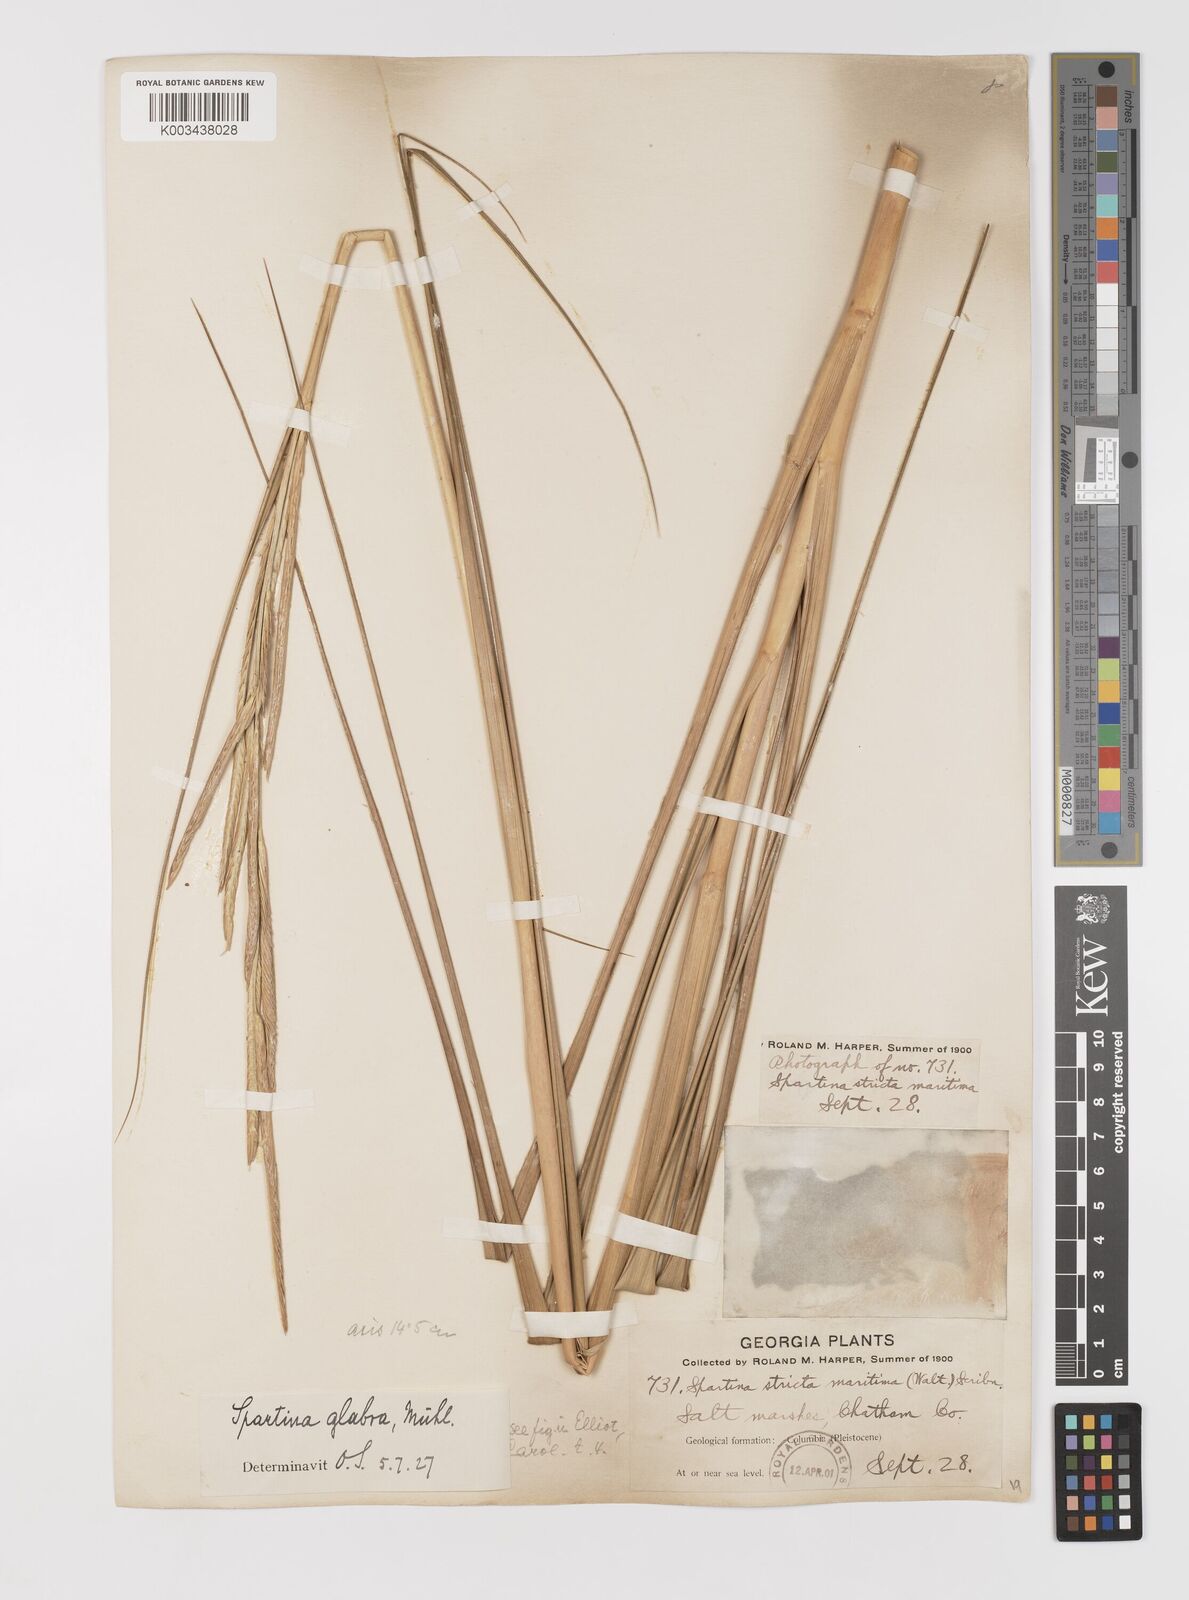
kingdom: Plantae
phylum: Tracheophyta
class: Liliopsida
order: Poales
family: Poaceae
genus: Sporobolus
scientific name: Sporobolus alterniflorus
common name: Atlantic cordgrass
